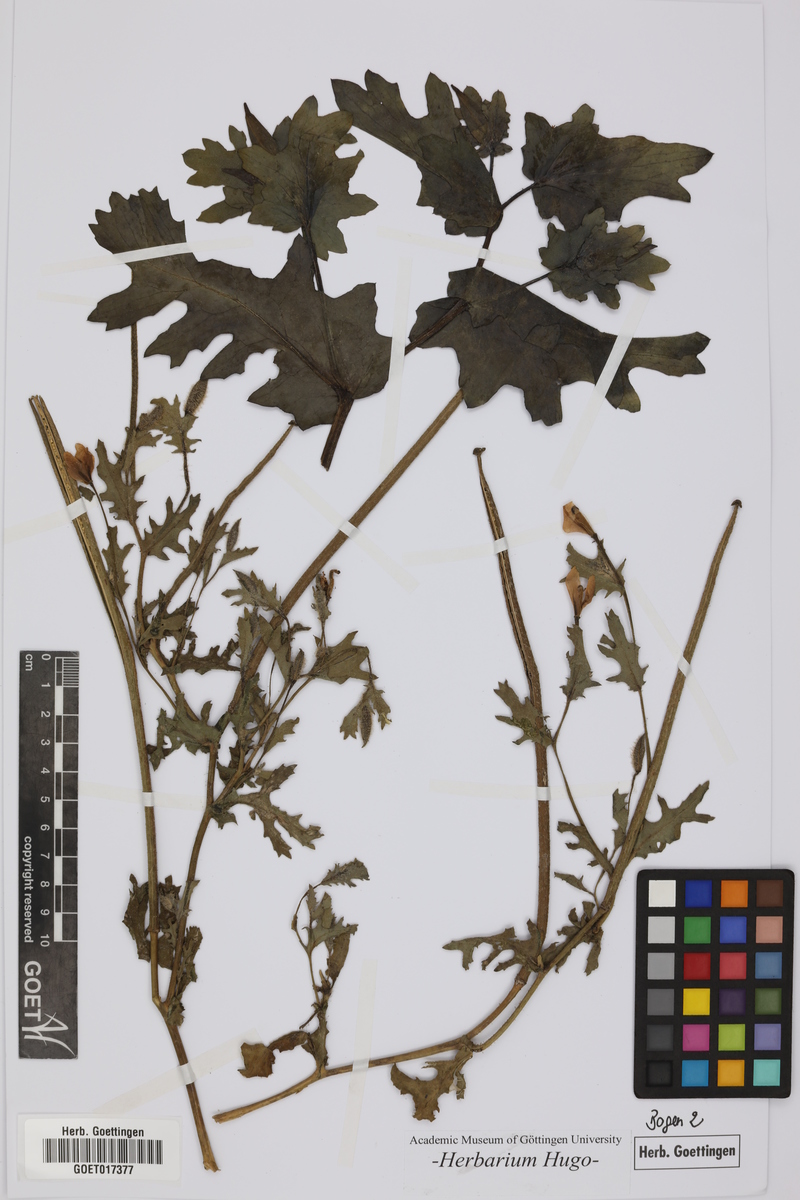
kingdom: Plantae
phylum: Tracheophyta
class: Magnoliopsida
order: Ranunculales
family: Papaveraceae
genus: Argemone
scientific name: Argemone
